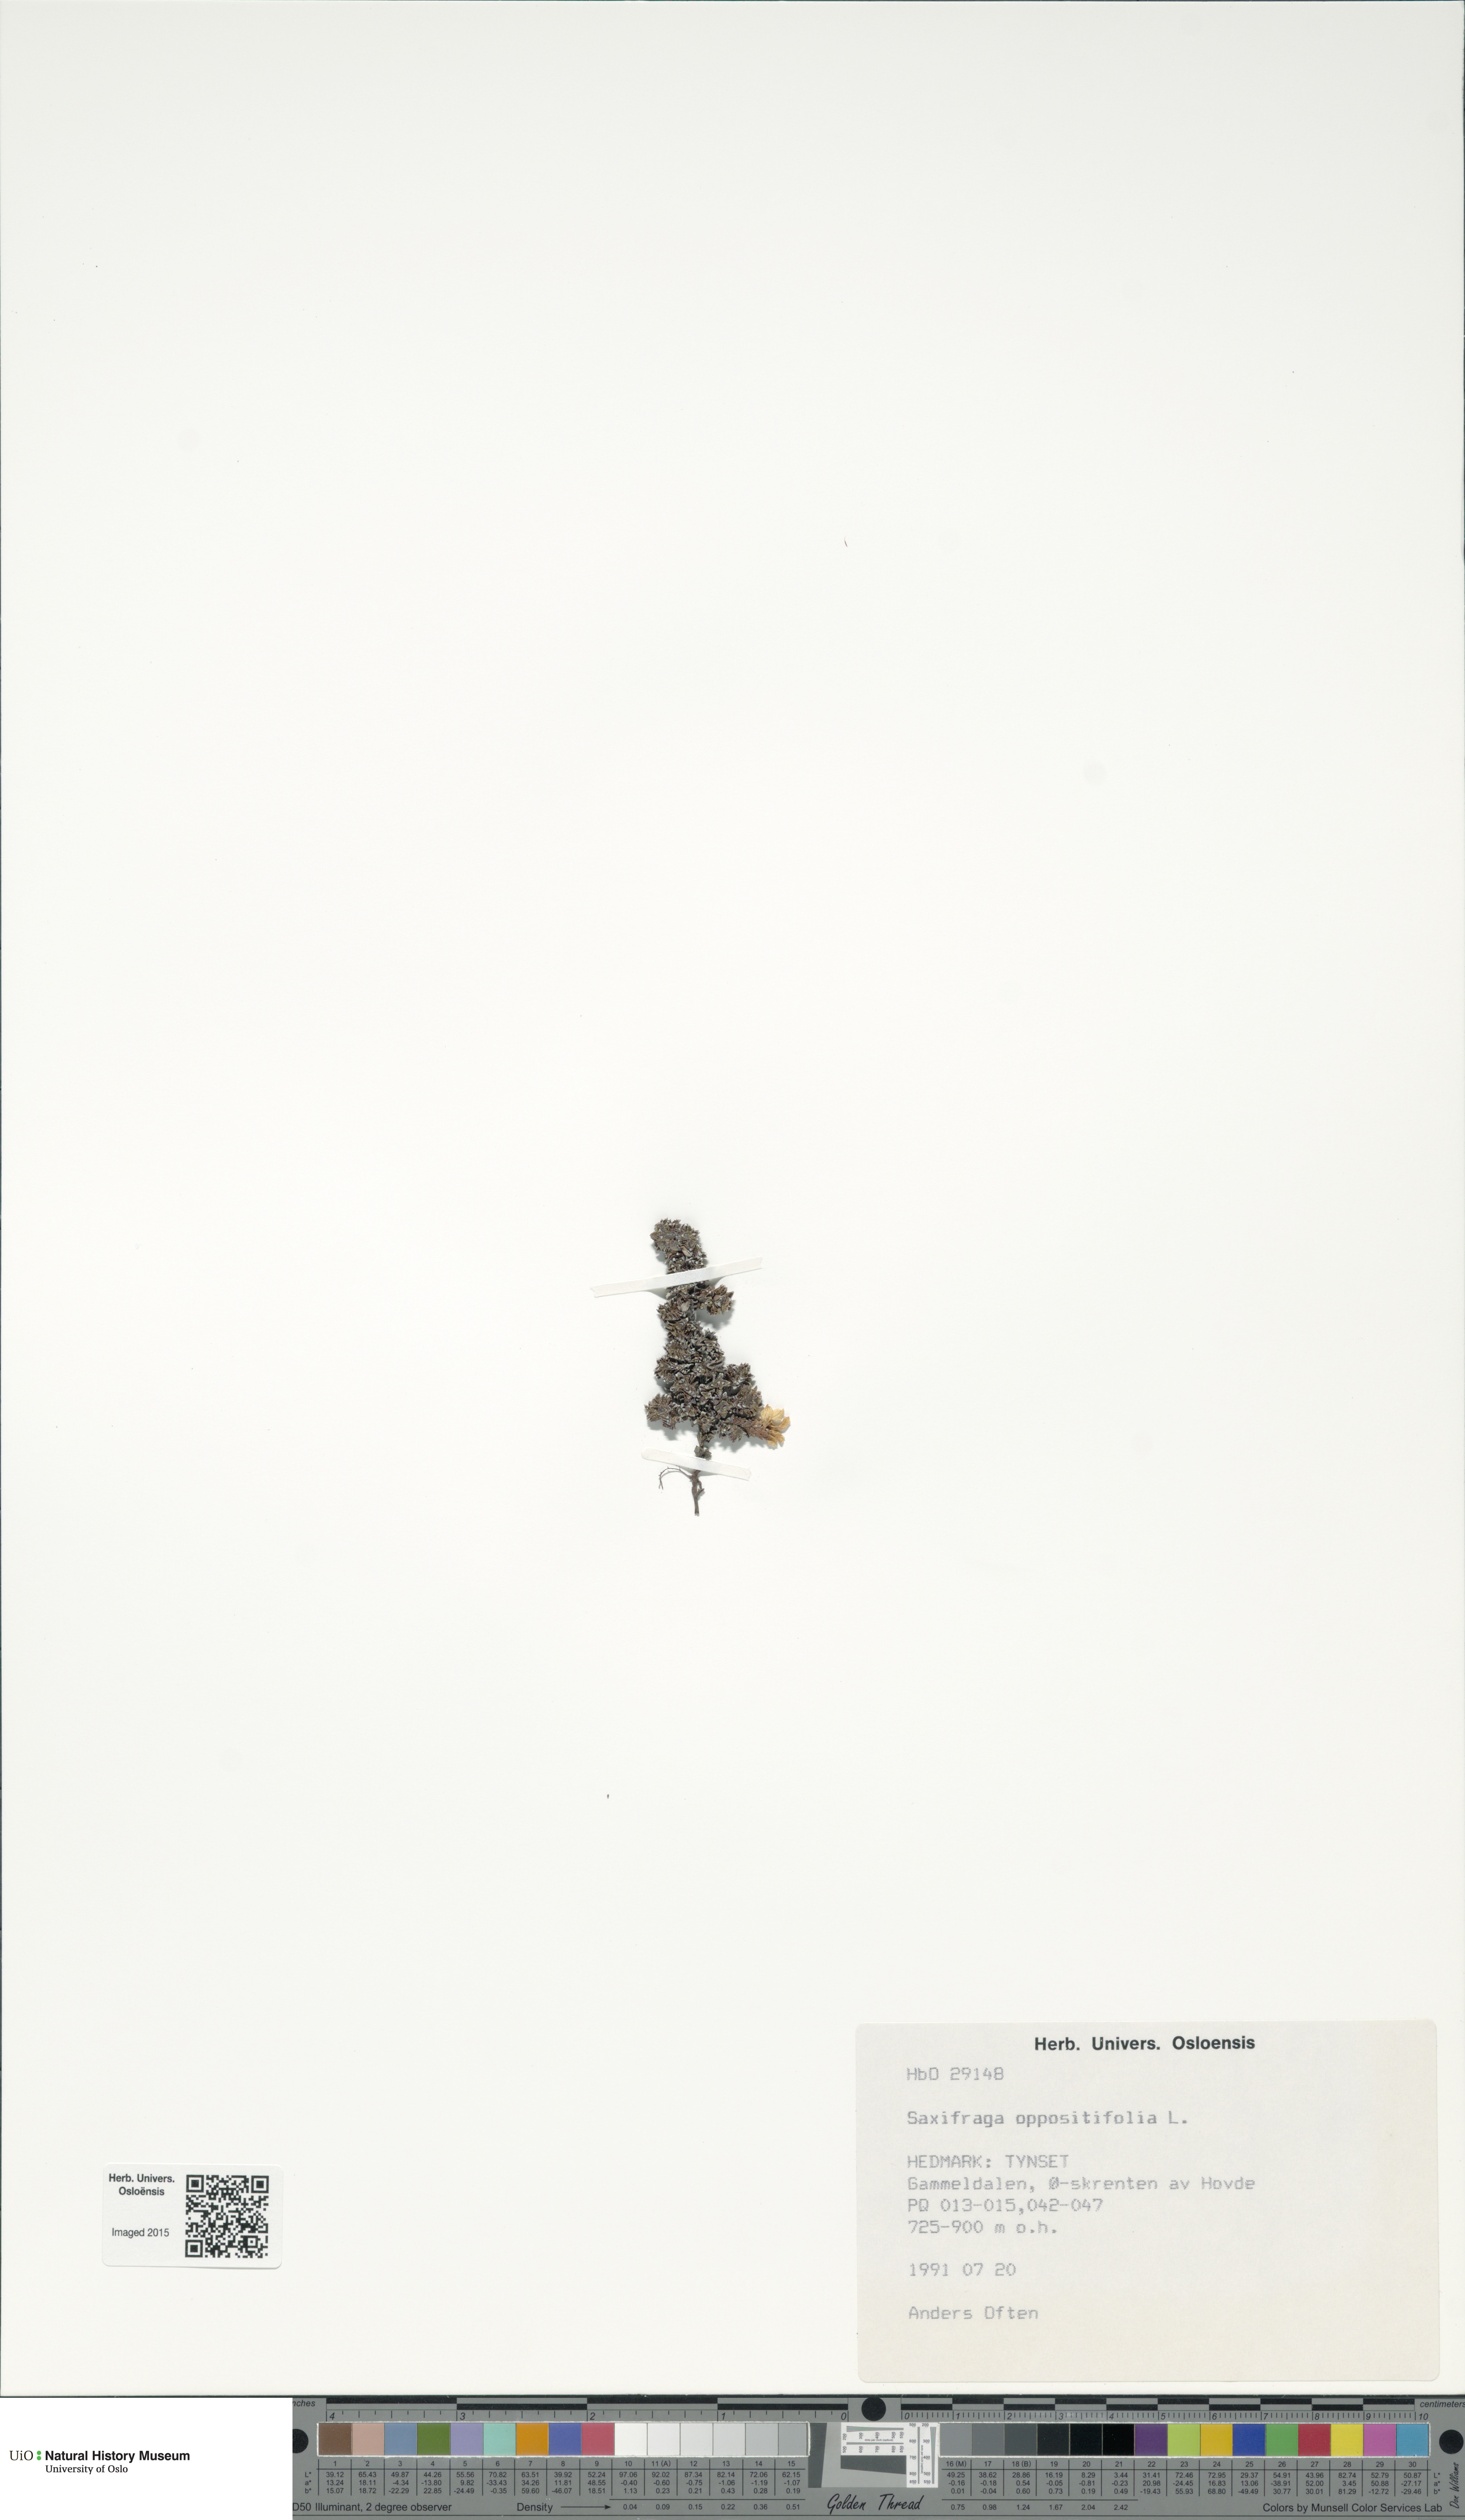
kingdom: Plantae
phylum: Tracheophyta
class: Magnoliopsida
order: Saxifragales
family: Saxifragaceae
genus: Saxifraga
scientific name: Saxifraga oppositifolia
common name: Purple saxifrage
